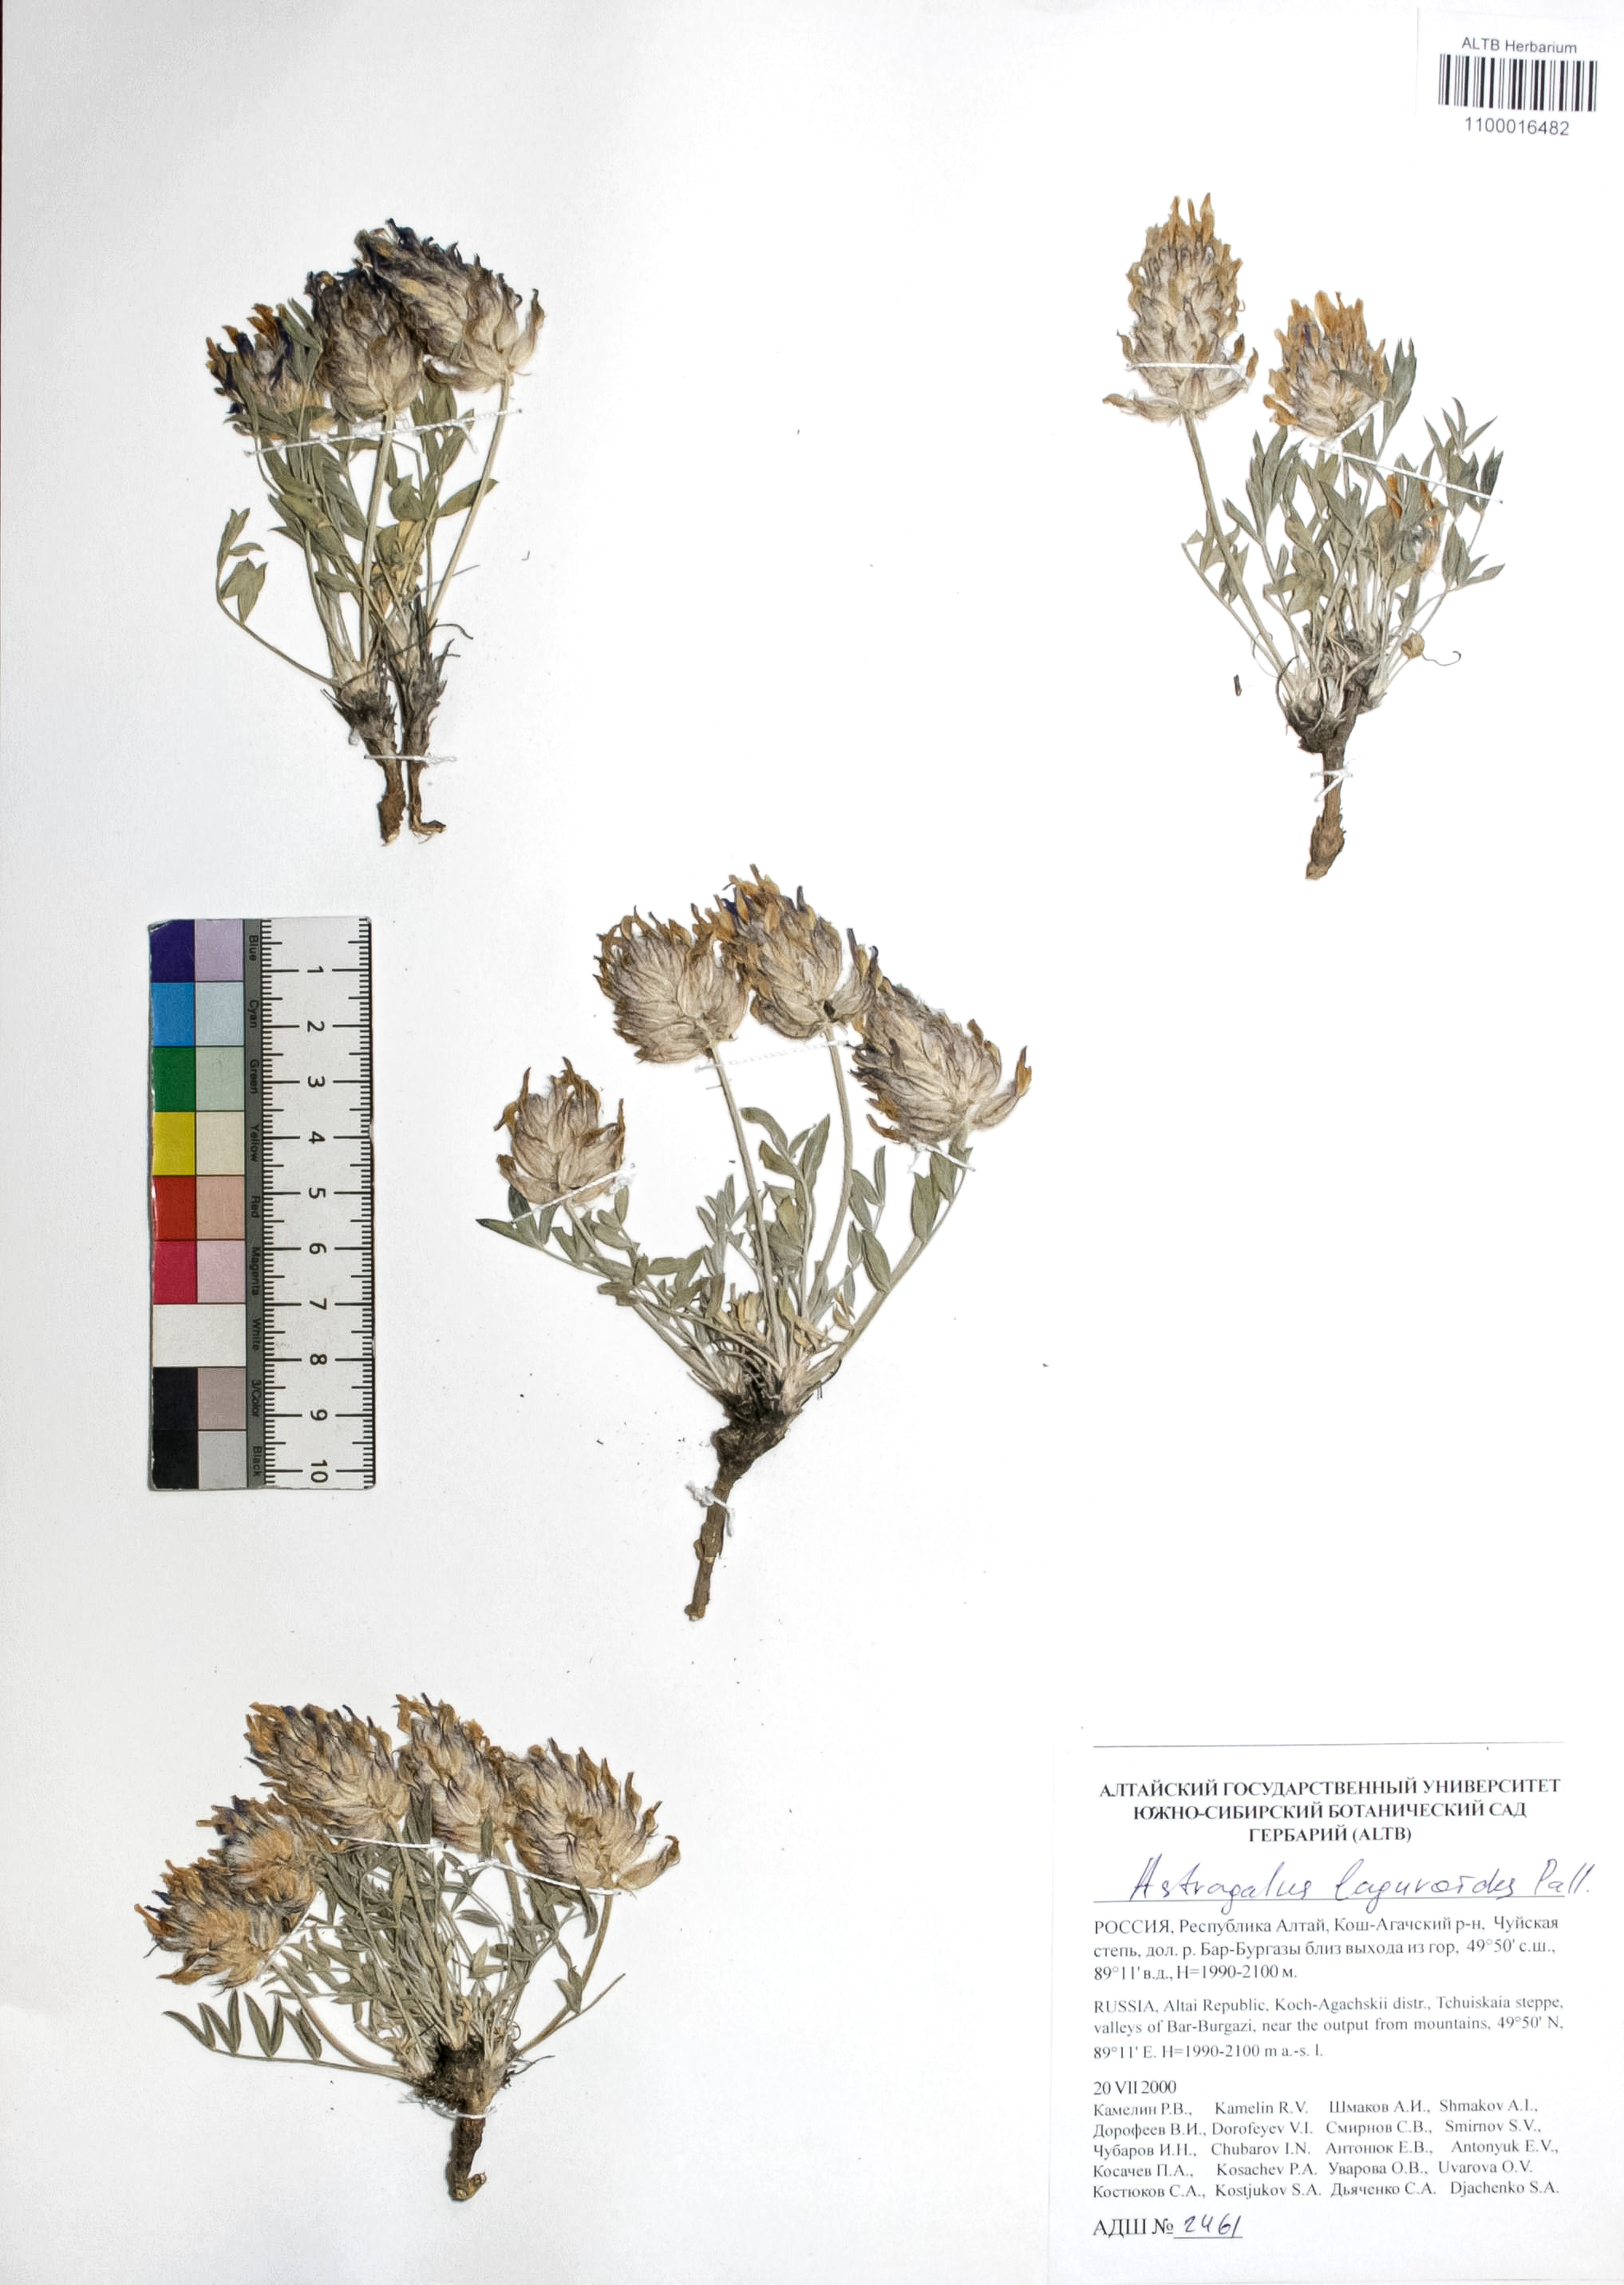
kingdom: Plantae
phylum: Tracheophyta
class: Magnoliopsida
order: Fabales
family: Fabaceae
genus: Astragalus
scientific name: Astragalus laguroides
